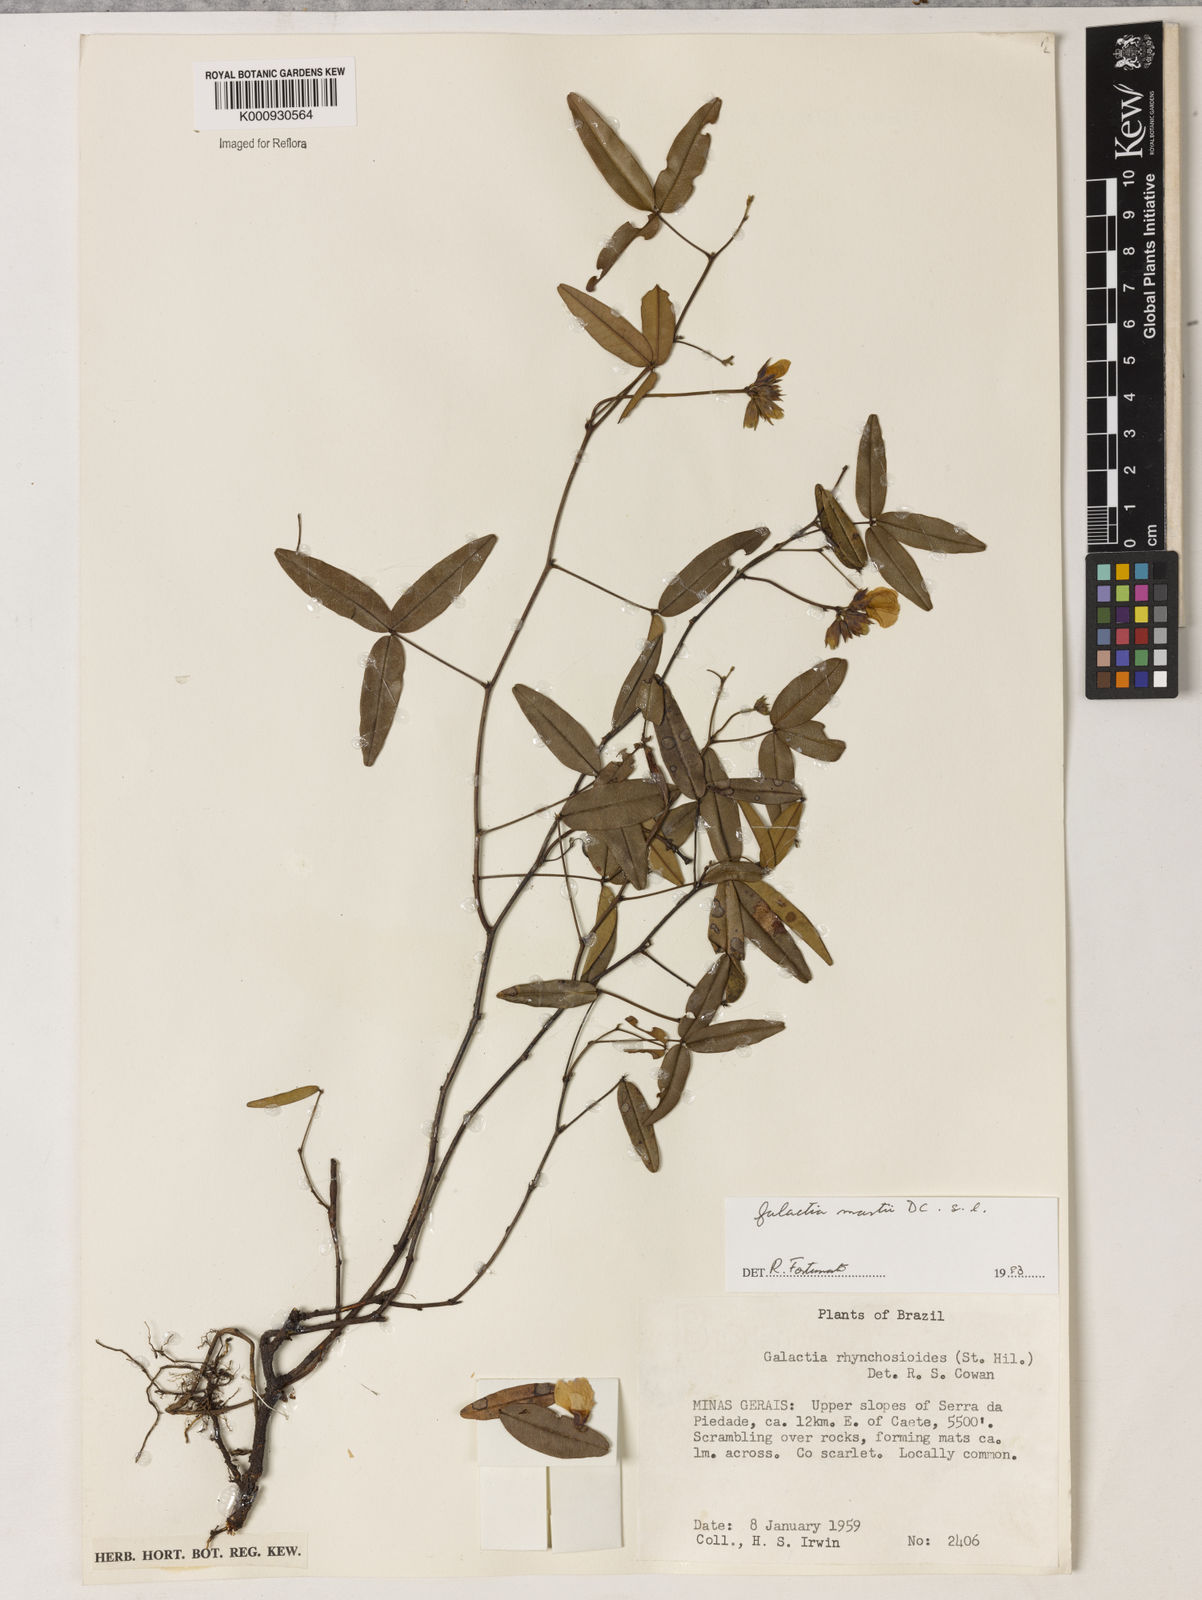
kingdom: Plantae
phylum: Tracheophyta
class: Magnoliopsida
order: Fabales
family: Fabaceae
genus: Betencourtia
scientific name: Betencourtia martii
